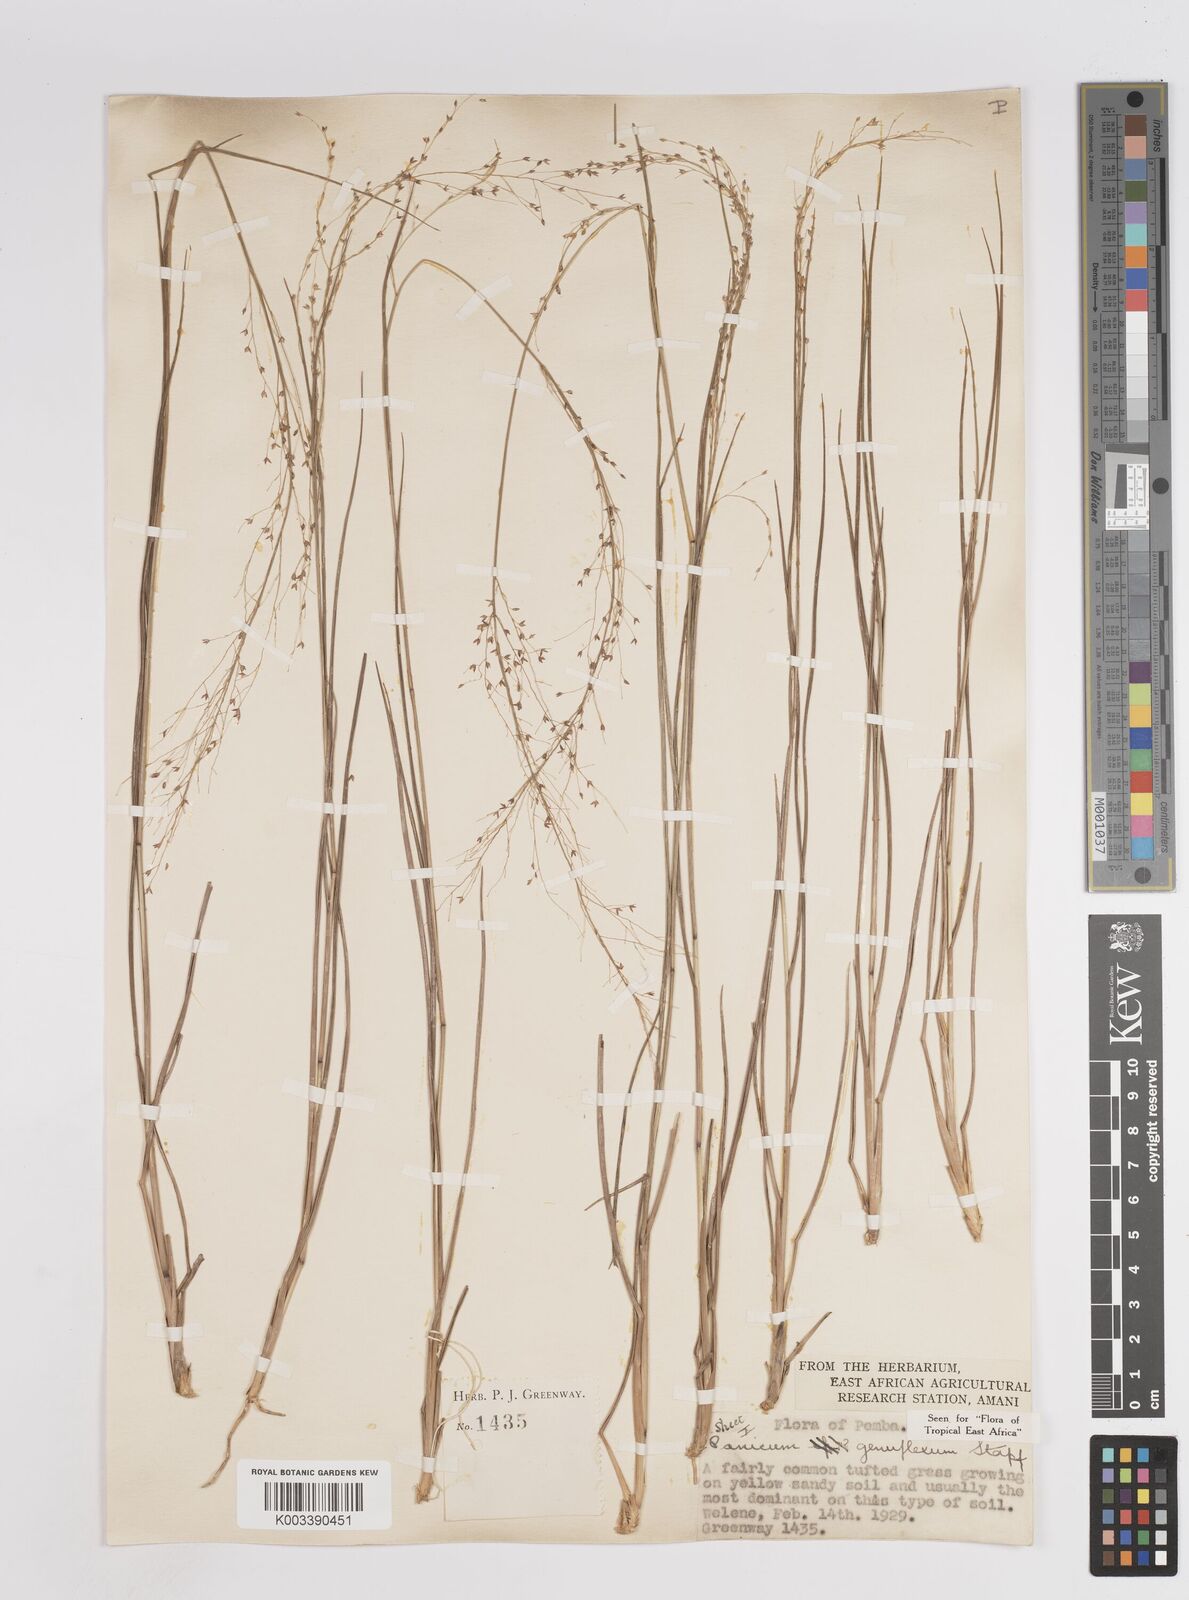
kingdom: Plantae
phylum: Tracheophyta
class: Liliopsida
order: Poales
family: Poaceae
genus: Panicum
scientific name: Panicum genuflexum
